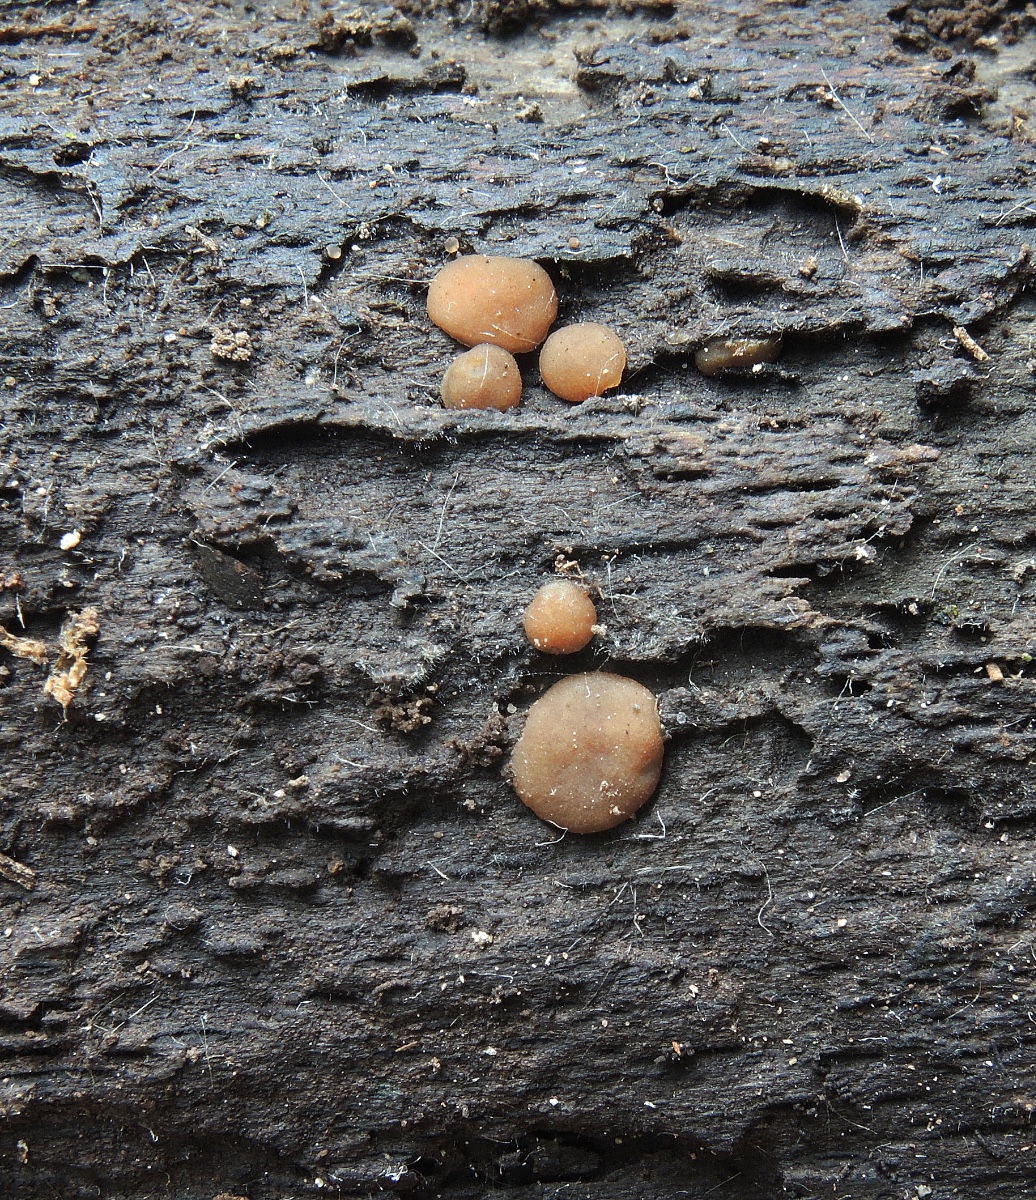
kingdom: Fungi
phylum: Ascomycota
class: Pezizomycetes
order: Pezizales
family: Pezizaceae
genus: Adelphella
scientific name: Adelphella babingtonii
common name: almindelig bækbæger
